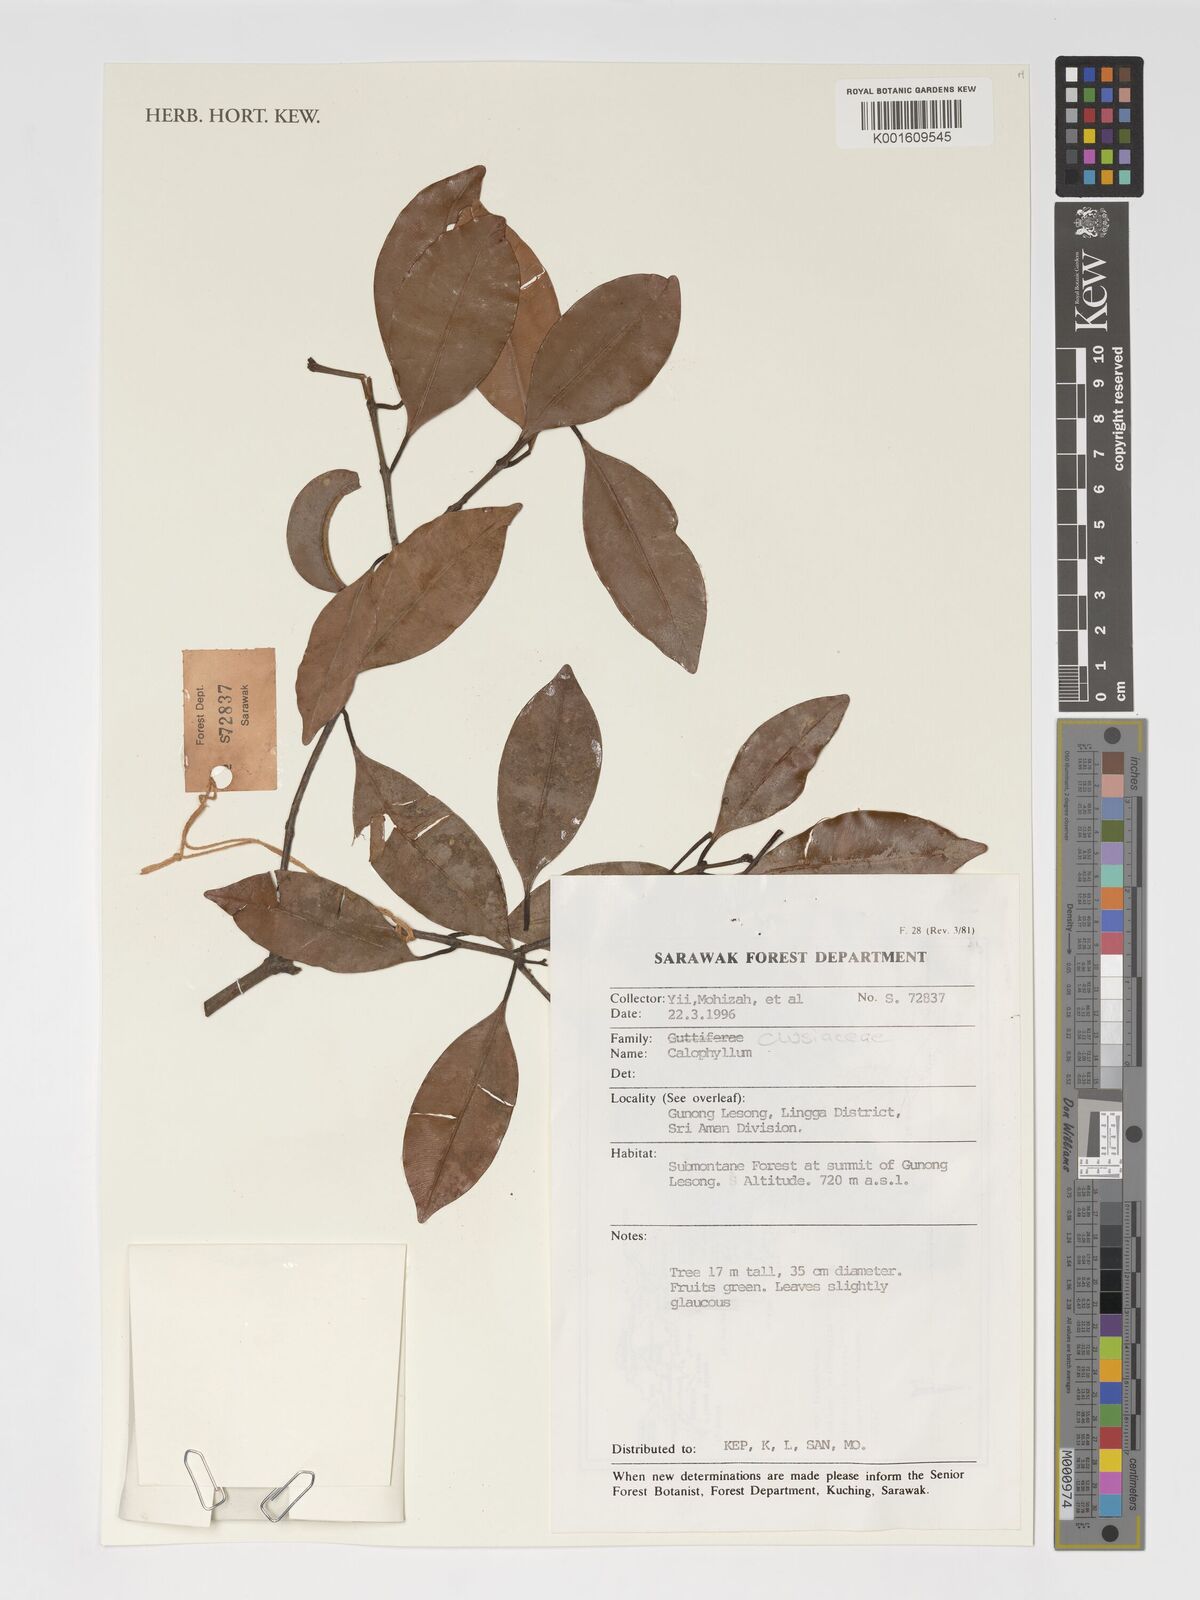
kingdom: Plantae
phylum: Tracheophyta
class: Magnoliopsida
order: Malpighiales
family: Calophyllaceae
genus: Calophyllum
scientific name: Calophyllum
